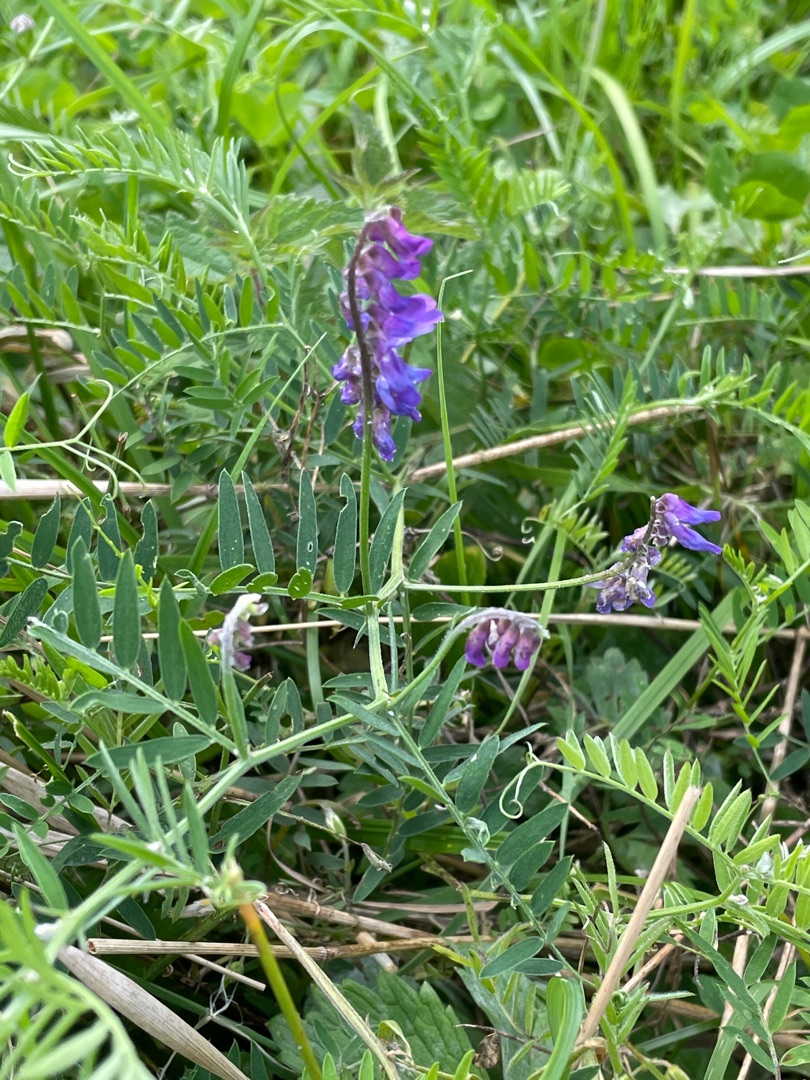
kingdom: Plantae
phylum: Tracheophyta
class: Magnoliopsida
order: Fabales
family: Fabaceae
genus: Vicia
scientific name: Vicia cracca
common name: Muse-vikke
